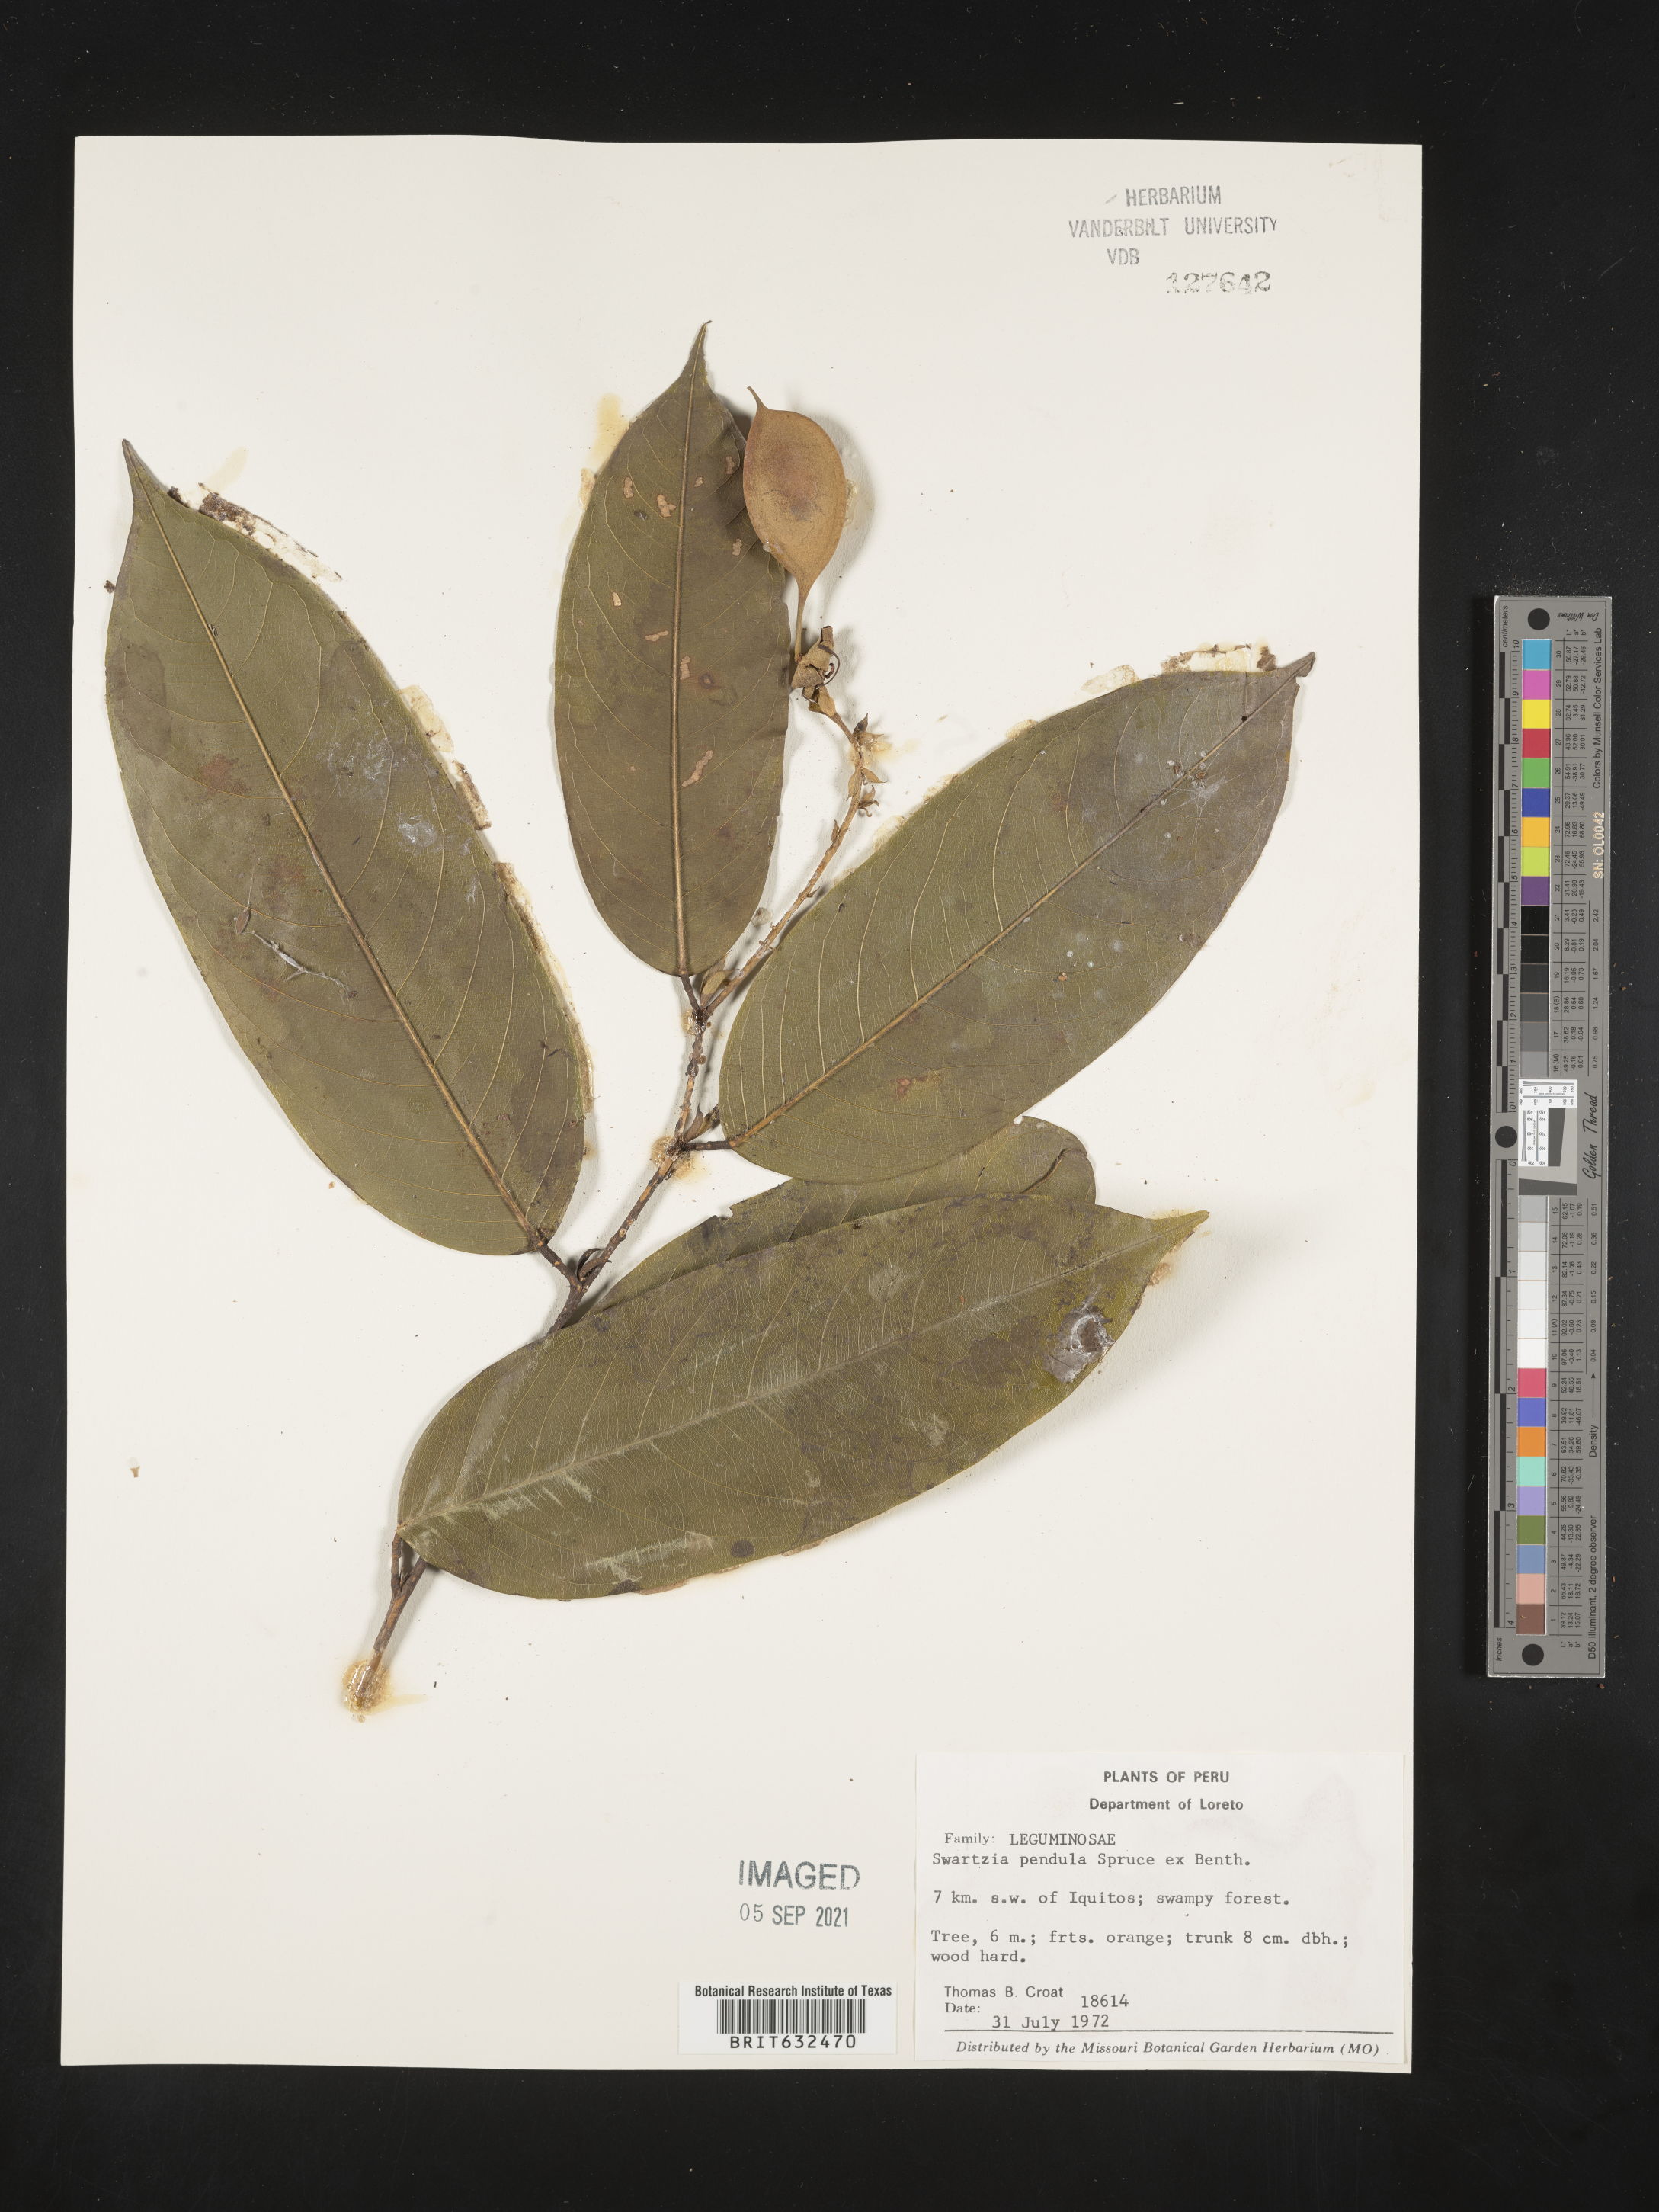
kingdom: Plantae
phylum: Tracheophyta
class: Magnoliopsida
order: Fabales
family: Fabaceae
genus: Swartzia
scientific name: Swartzia
